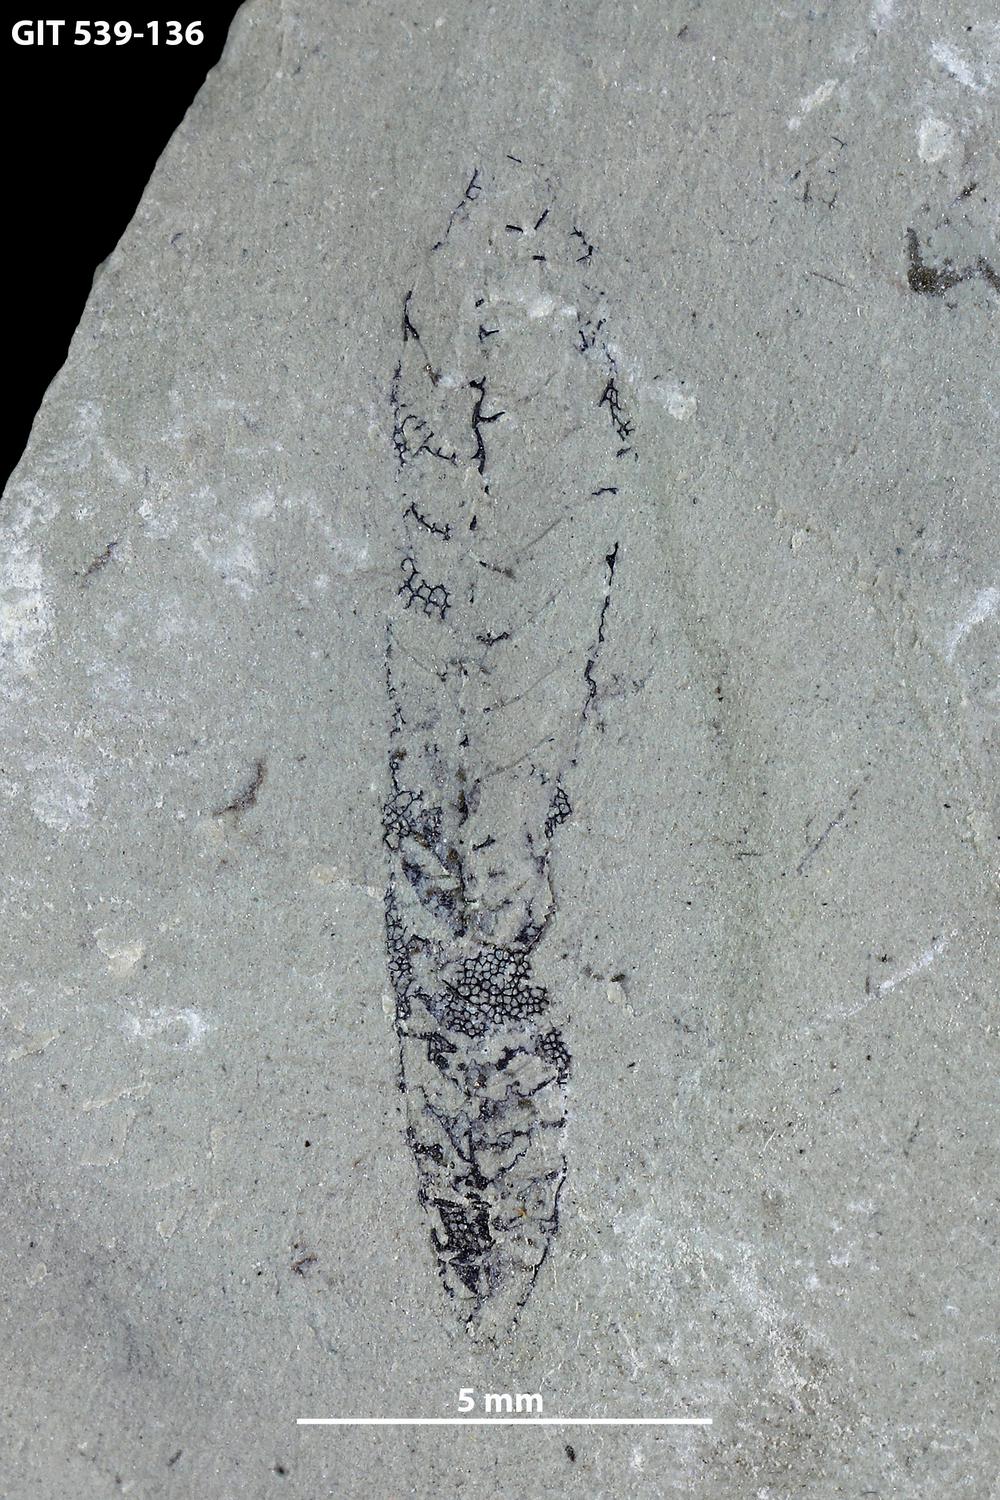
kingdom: Animalia
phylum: Hemichordata
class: Pterobranchia
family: Retiolitidae
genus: Retiolites
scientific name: Retiolites
